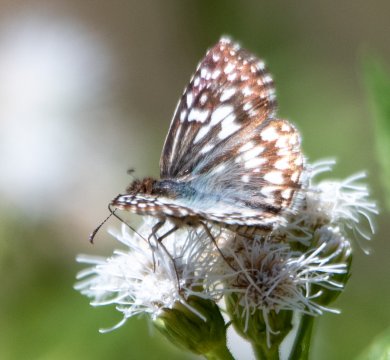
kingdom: Animalia
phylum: Arthropoda
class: Insecta
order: Lepidoptera
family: Hesperiidae
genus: Pyrgus
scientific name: Pyrgus communis
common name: White Checkered-Skipper
